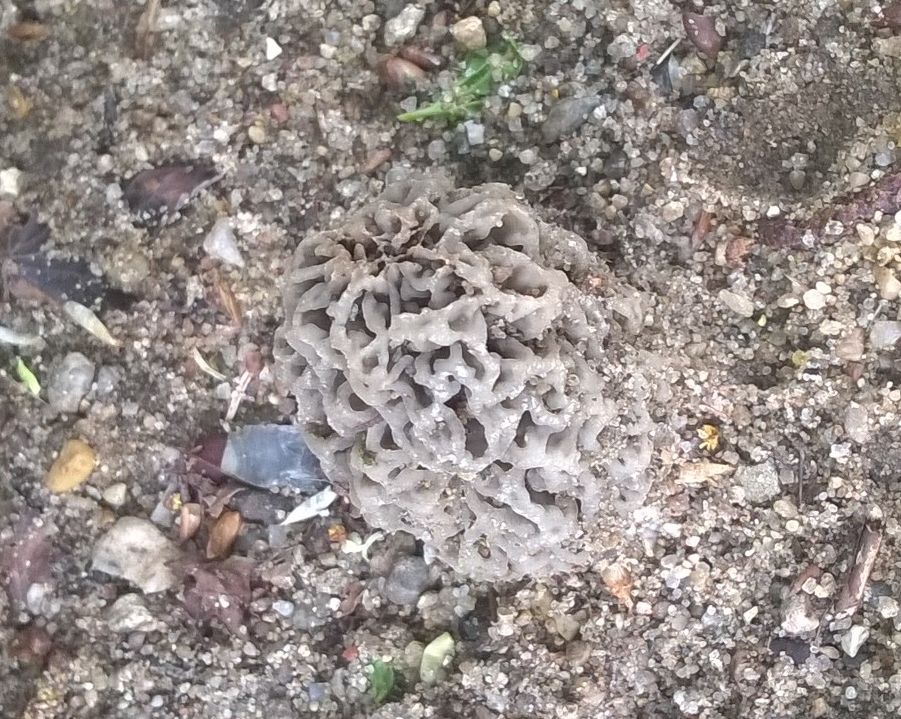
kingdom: Fungi
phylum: Ascomycota
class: Pezizomycetes
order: Pezizales
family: Morchellaceae
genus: Morchella
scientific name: Morchella esculenta
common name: spiselig morkel
